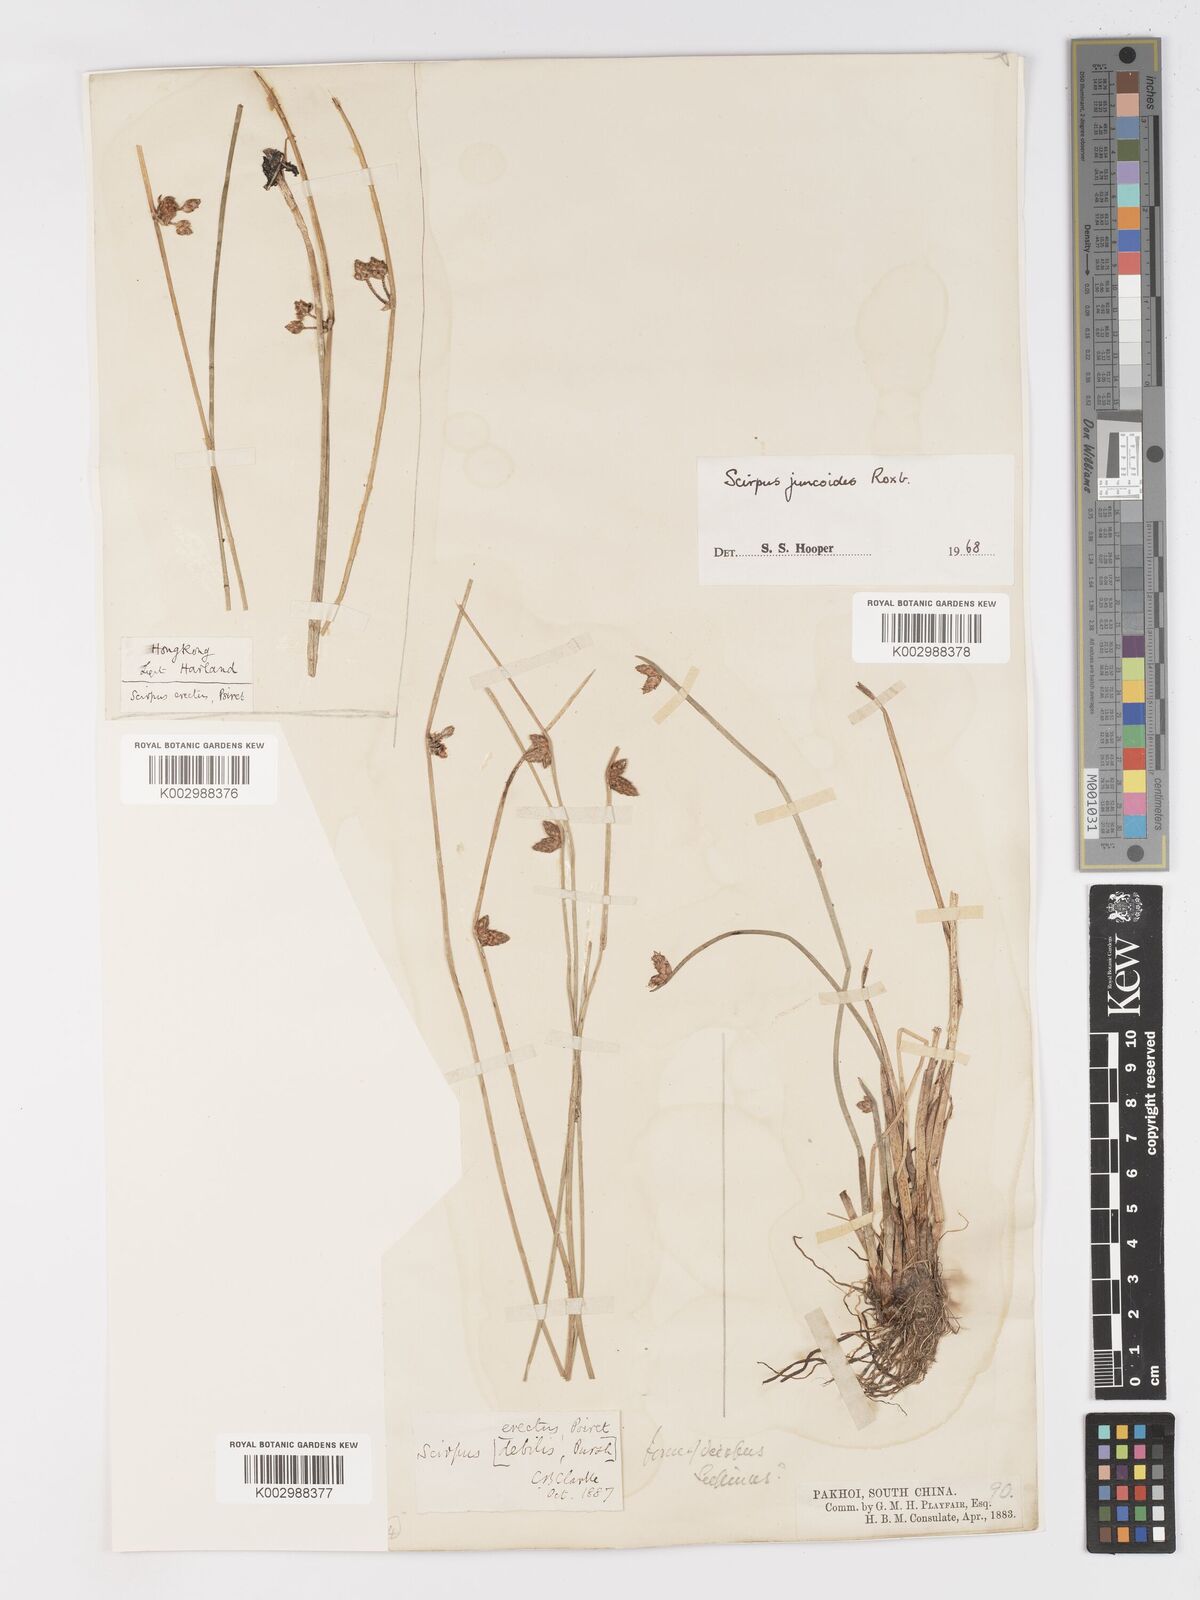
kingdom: Plantae
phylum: Tracheophyta
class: Liliopsida
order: Poales
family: Cyperaceae
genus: Schoenoplectiella
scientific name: Schoenoplectiella juncoides
